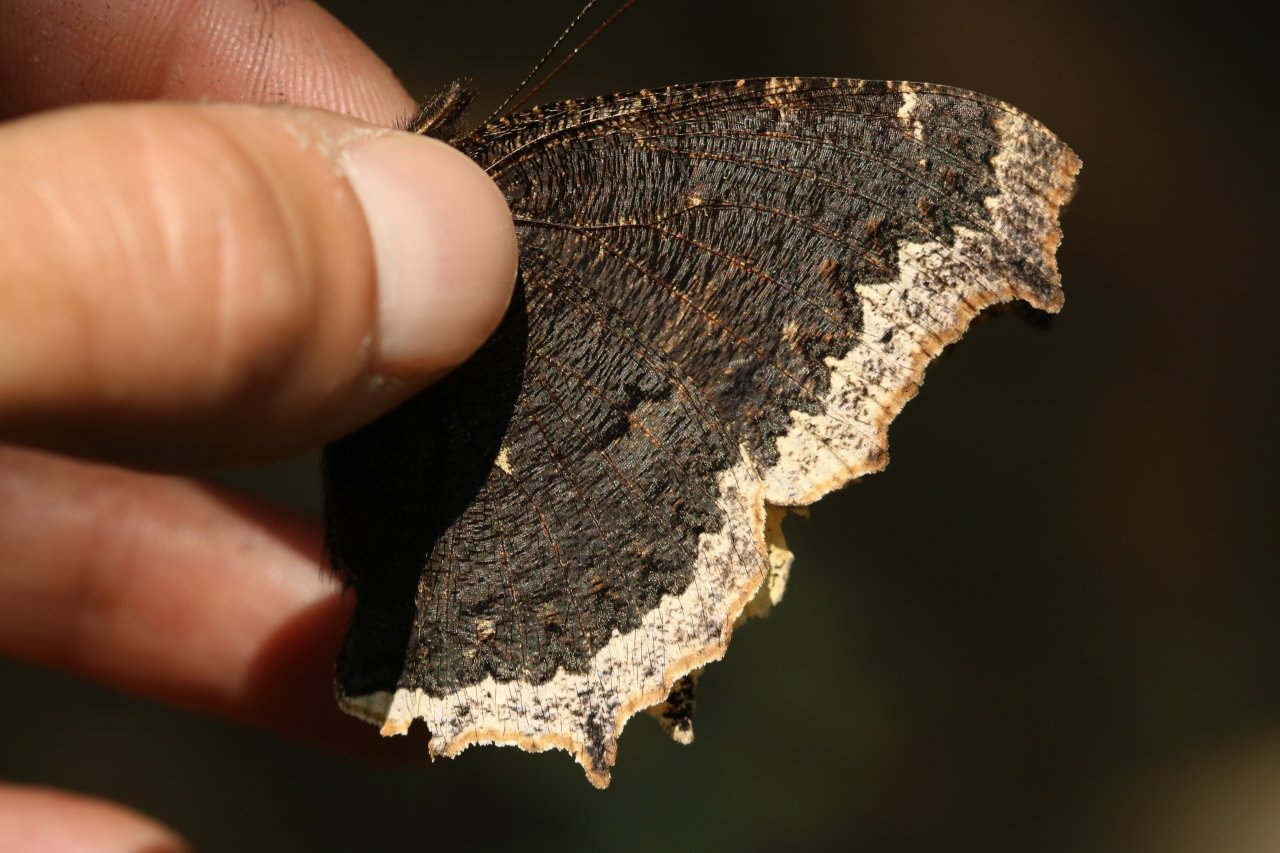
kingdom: Animalia
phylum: Arthropoda
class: Insecta
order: Lepidoptera
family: Nymphalidae
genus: Nymphalis
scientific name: Nymphalis antiopa
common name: Mourning Cloak
